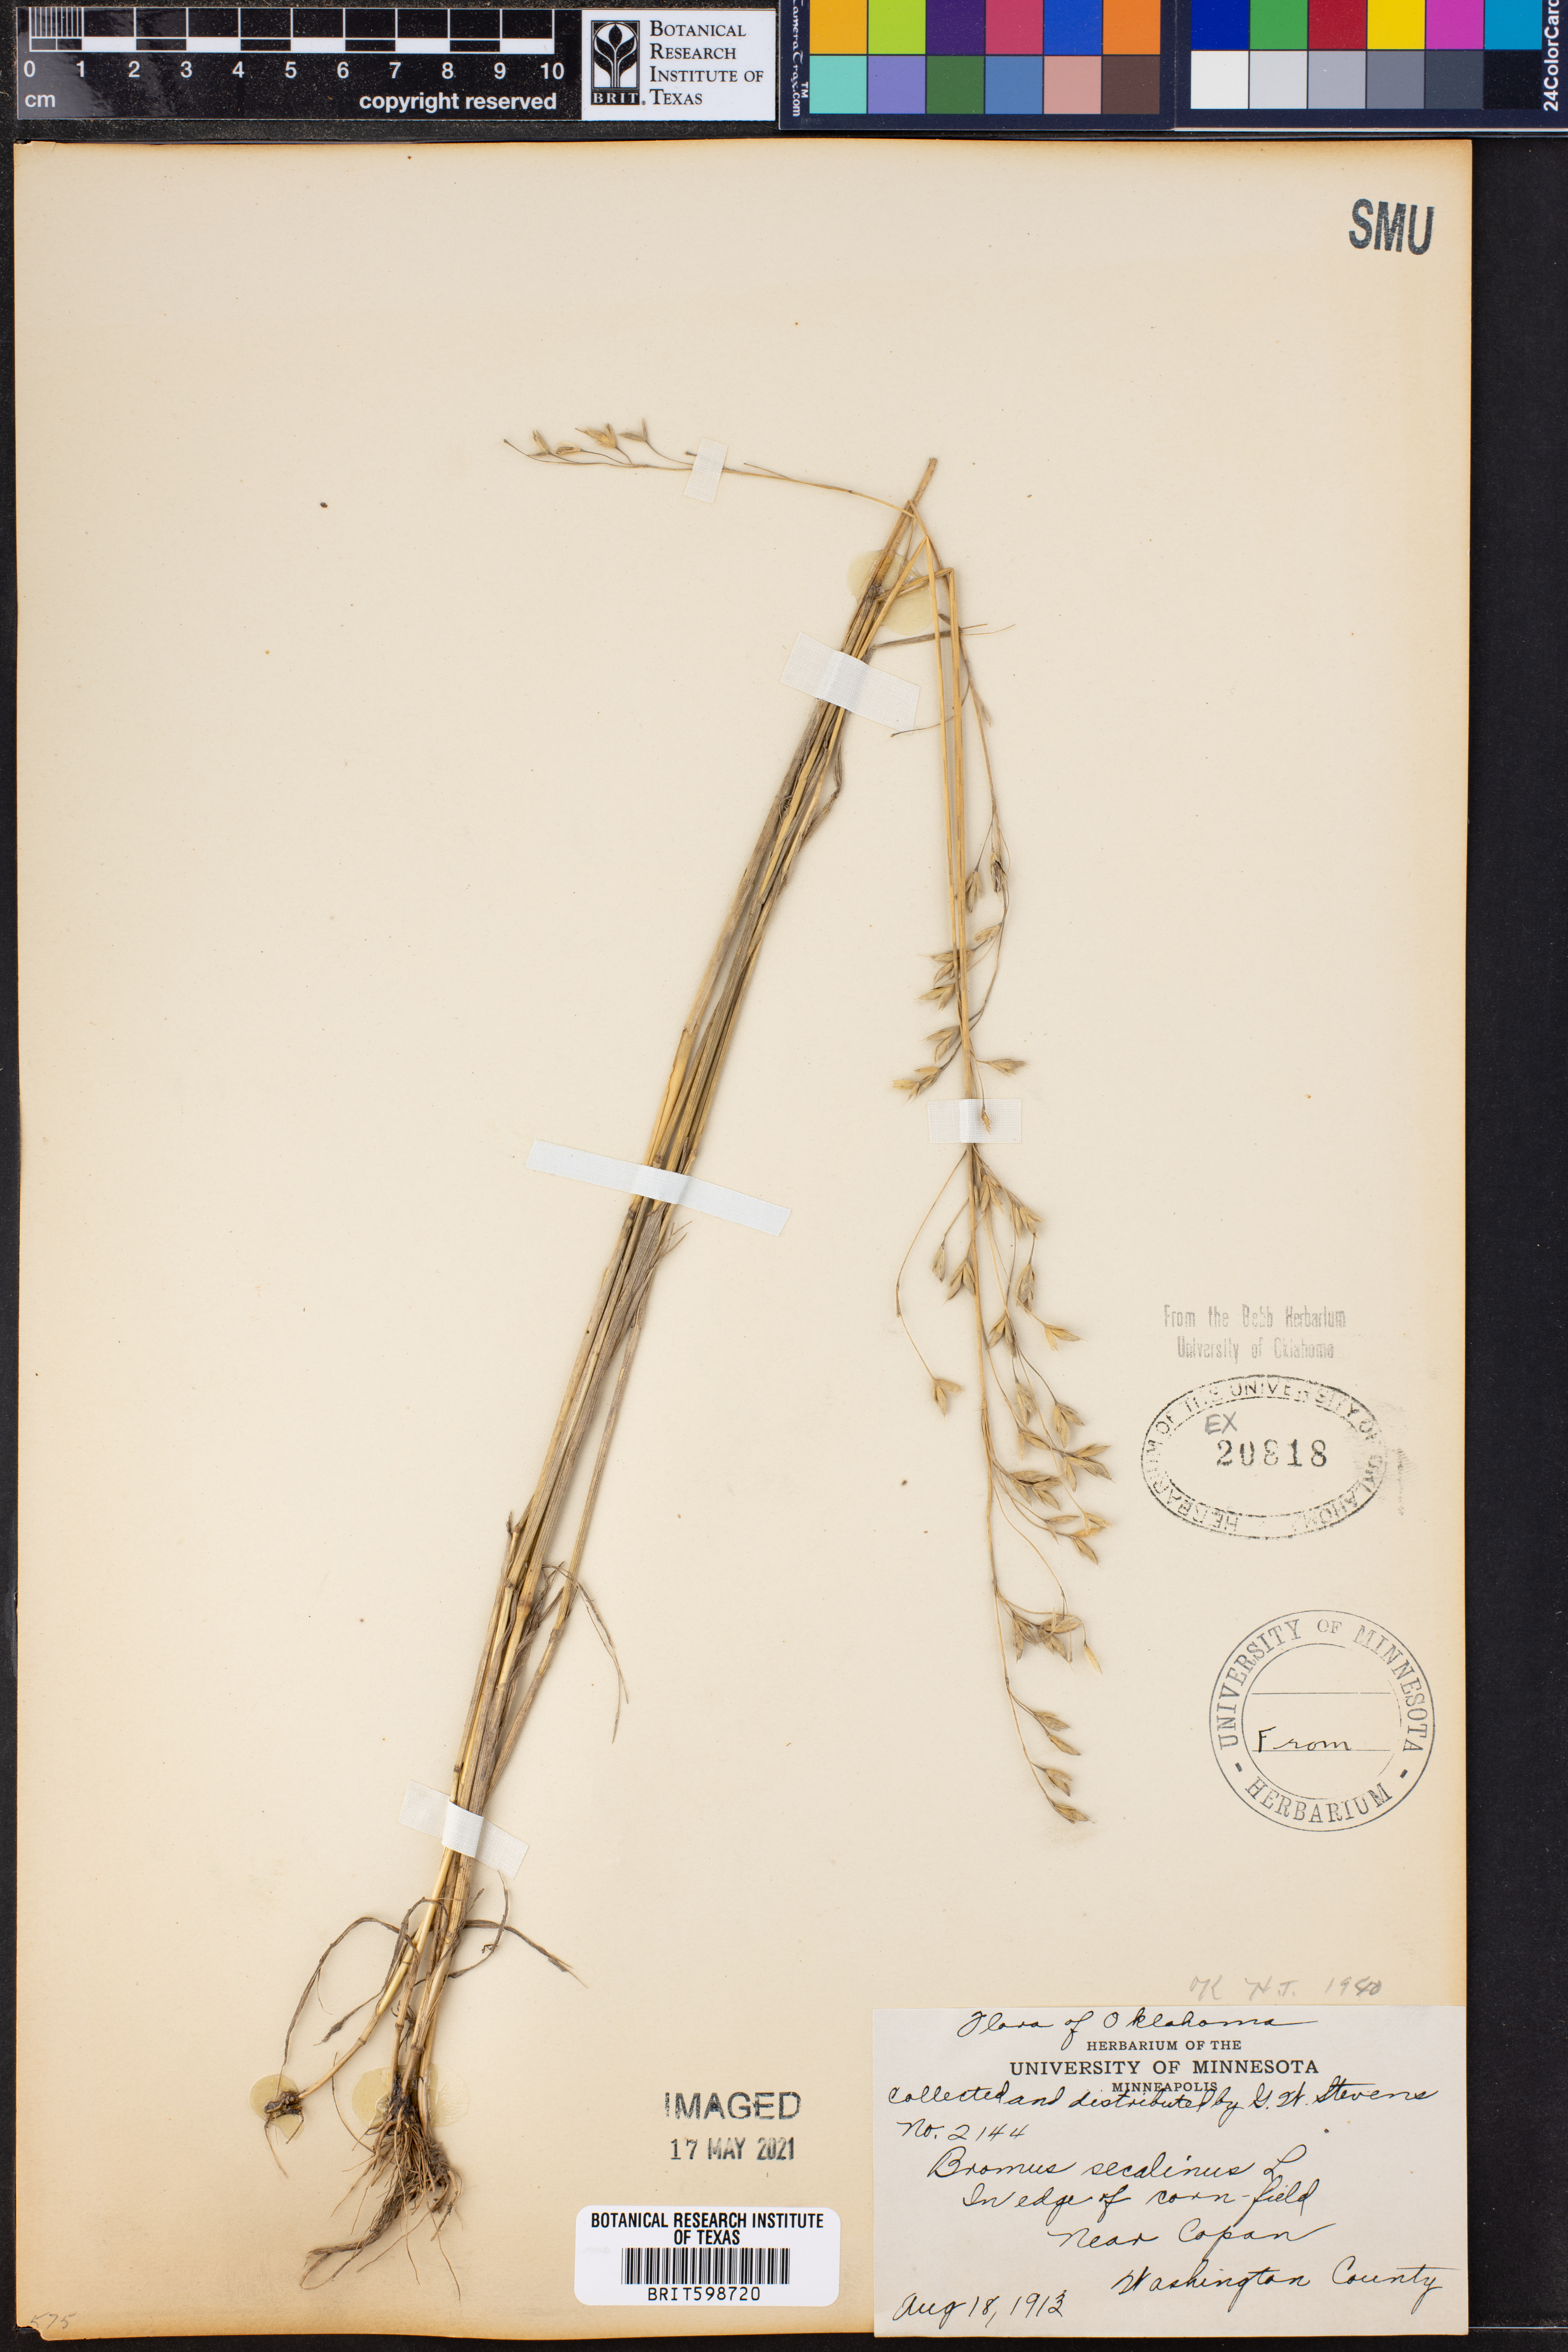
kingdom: Plantae
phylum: Tracheophyta
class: Liliopsida
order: Poales
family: Poaceae
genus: Bromus
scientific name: Bromus secalinus
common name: Rye brome
